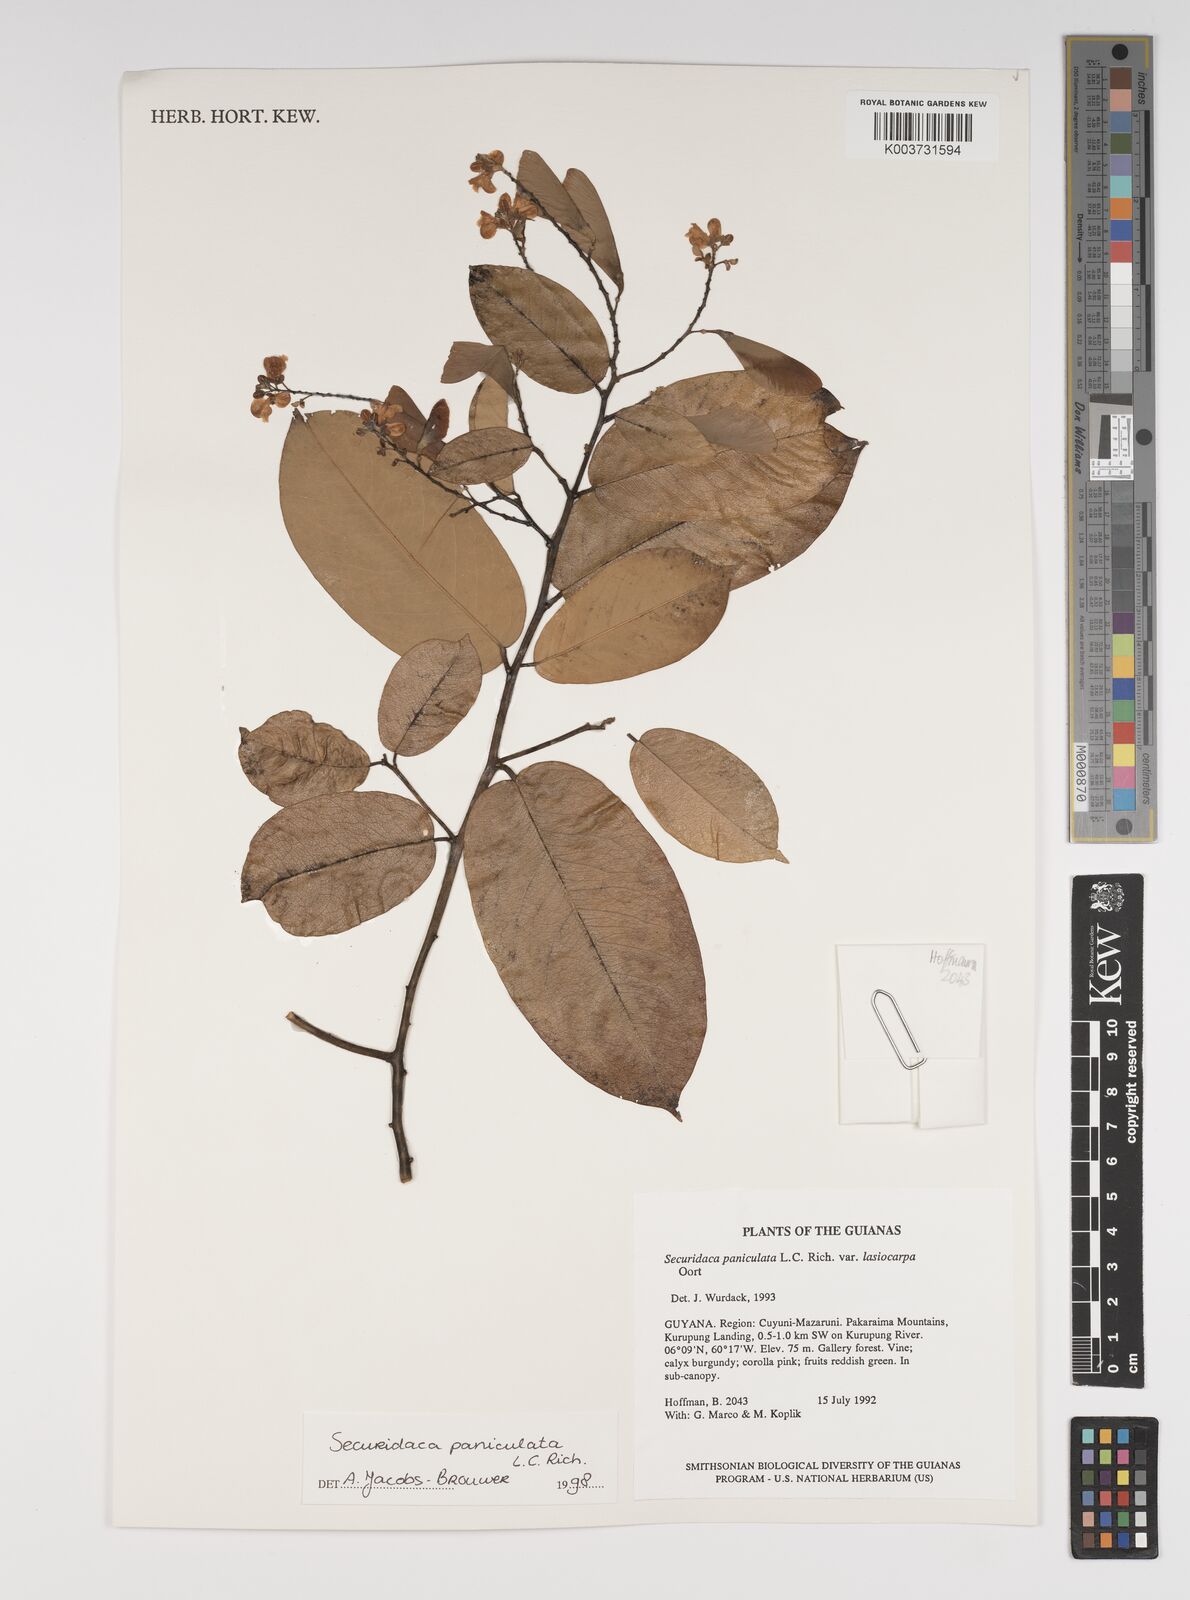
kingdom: Plantae
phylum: Tracheophyta
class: Magnoliopsida
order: Fabales
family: Polygalaceae
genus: Securidaca
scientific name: Securidaca paniculata
